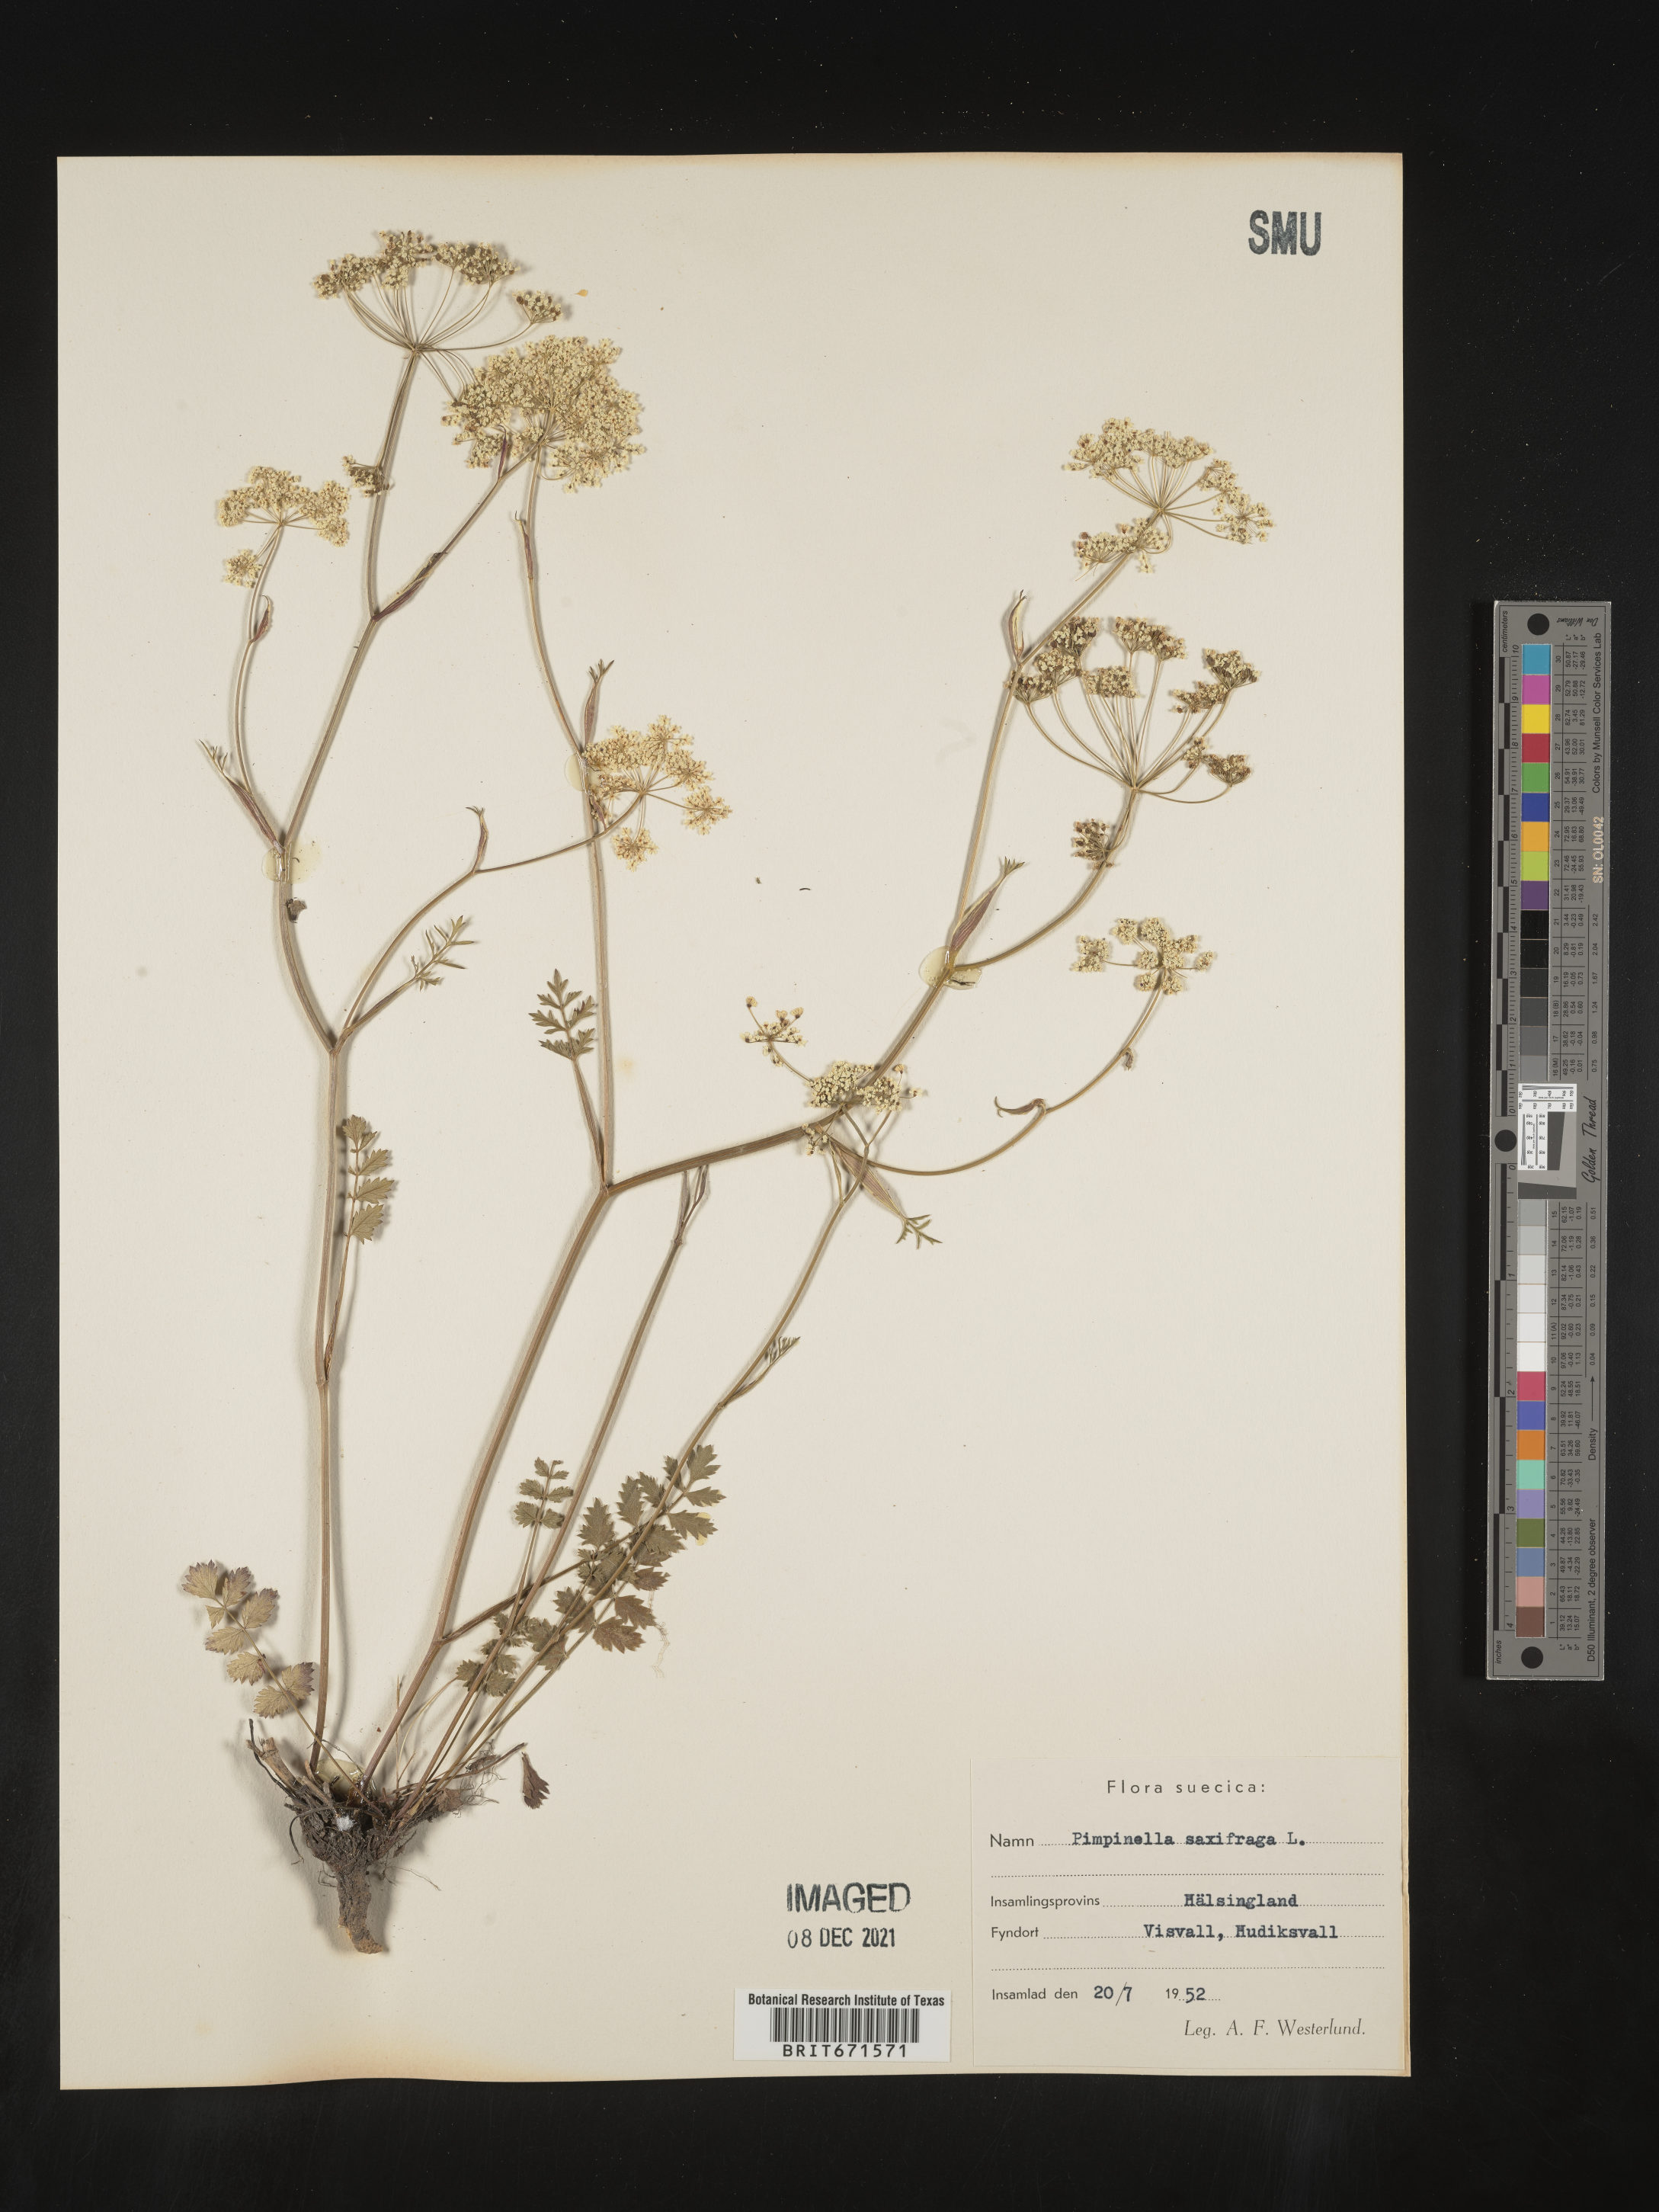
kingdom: Plantae
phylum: Tracheophyta
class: Magnoliopsida
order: Apiales
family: Apiaceae
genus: Pimpinella
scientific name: Pimpinella
